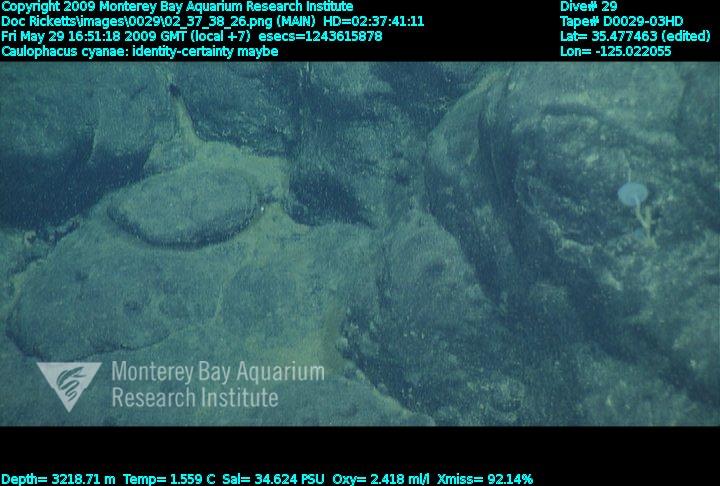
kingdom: Animalia
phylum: Porifera
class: Hexactinellida
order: Lyssacinosida
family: Rossellidae
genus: Caulophacus
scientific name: Caulophacus cyanae
